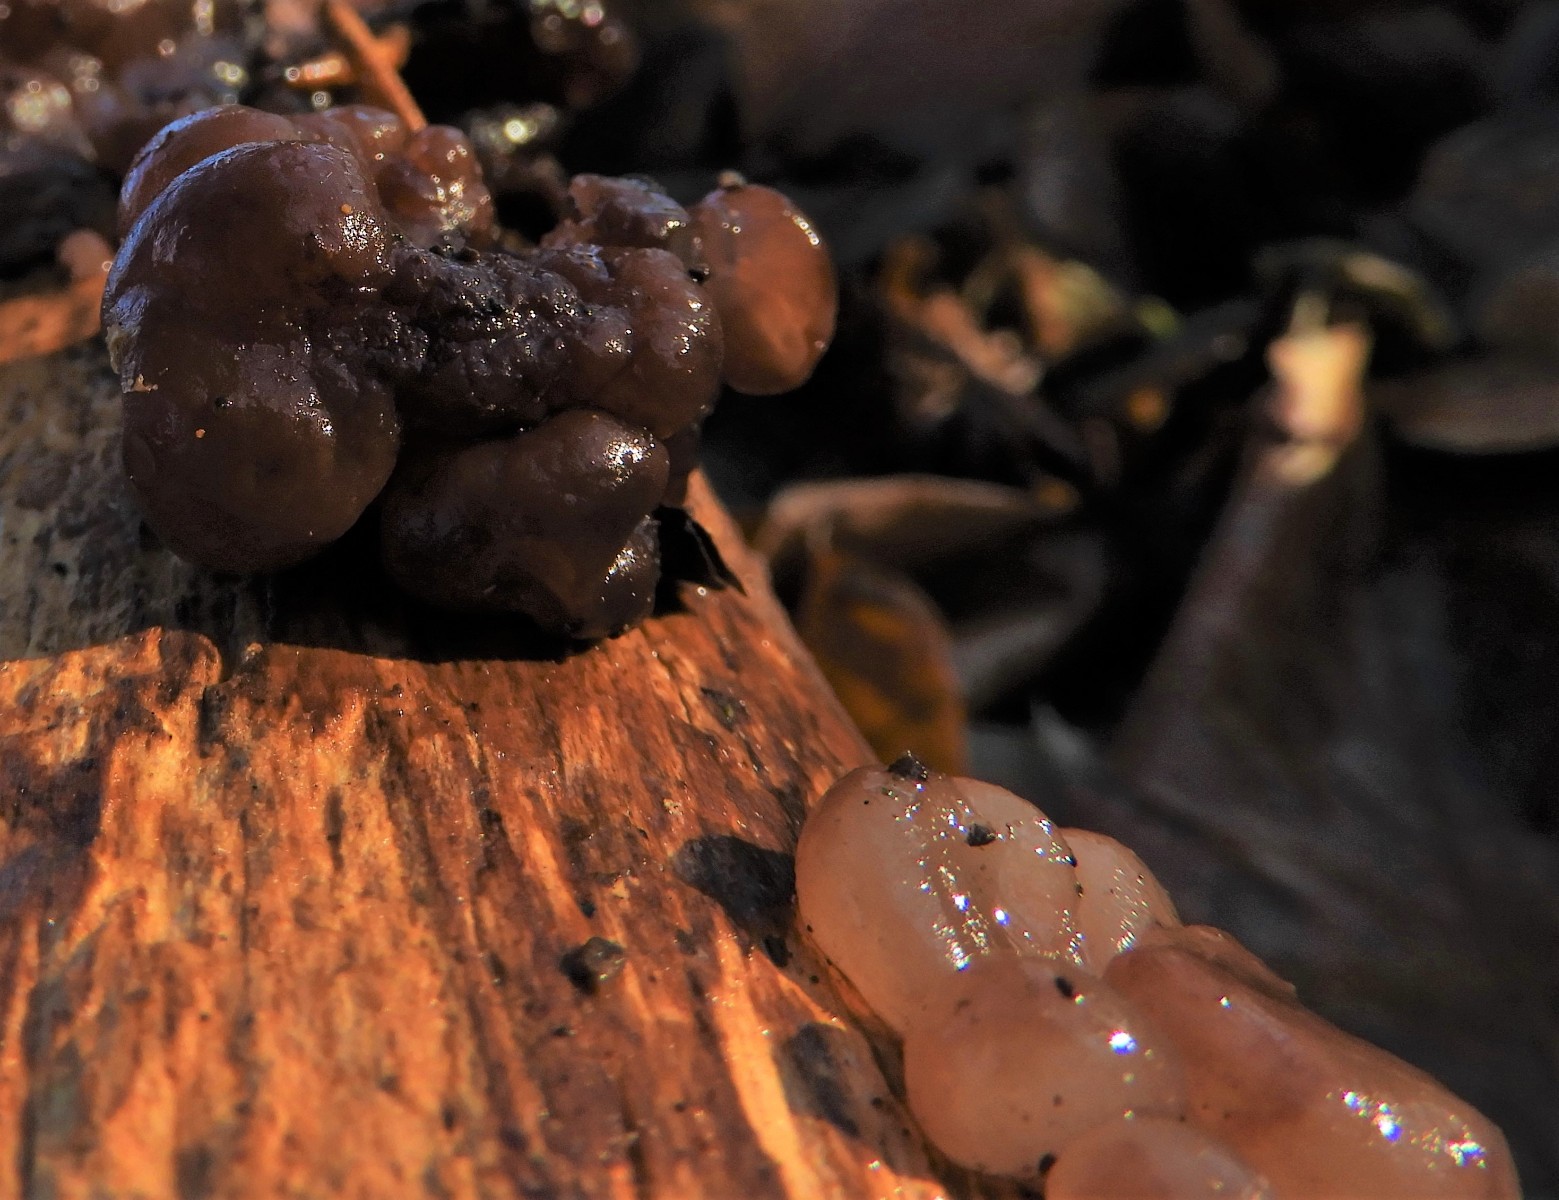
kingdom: Fungi
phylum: Ascomycota
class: Leotiomycetes
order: Helotiales
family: Gelatinodiscaceae
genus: Ascotremella
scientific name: Ascotremella faginea
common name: hjerne-bævreskive
